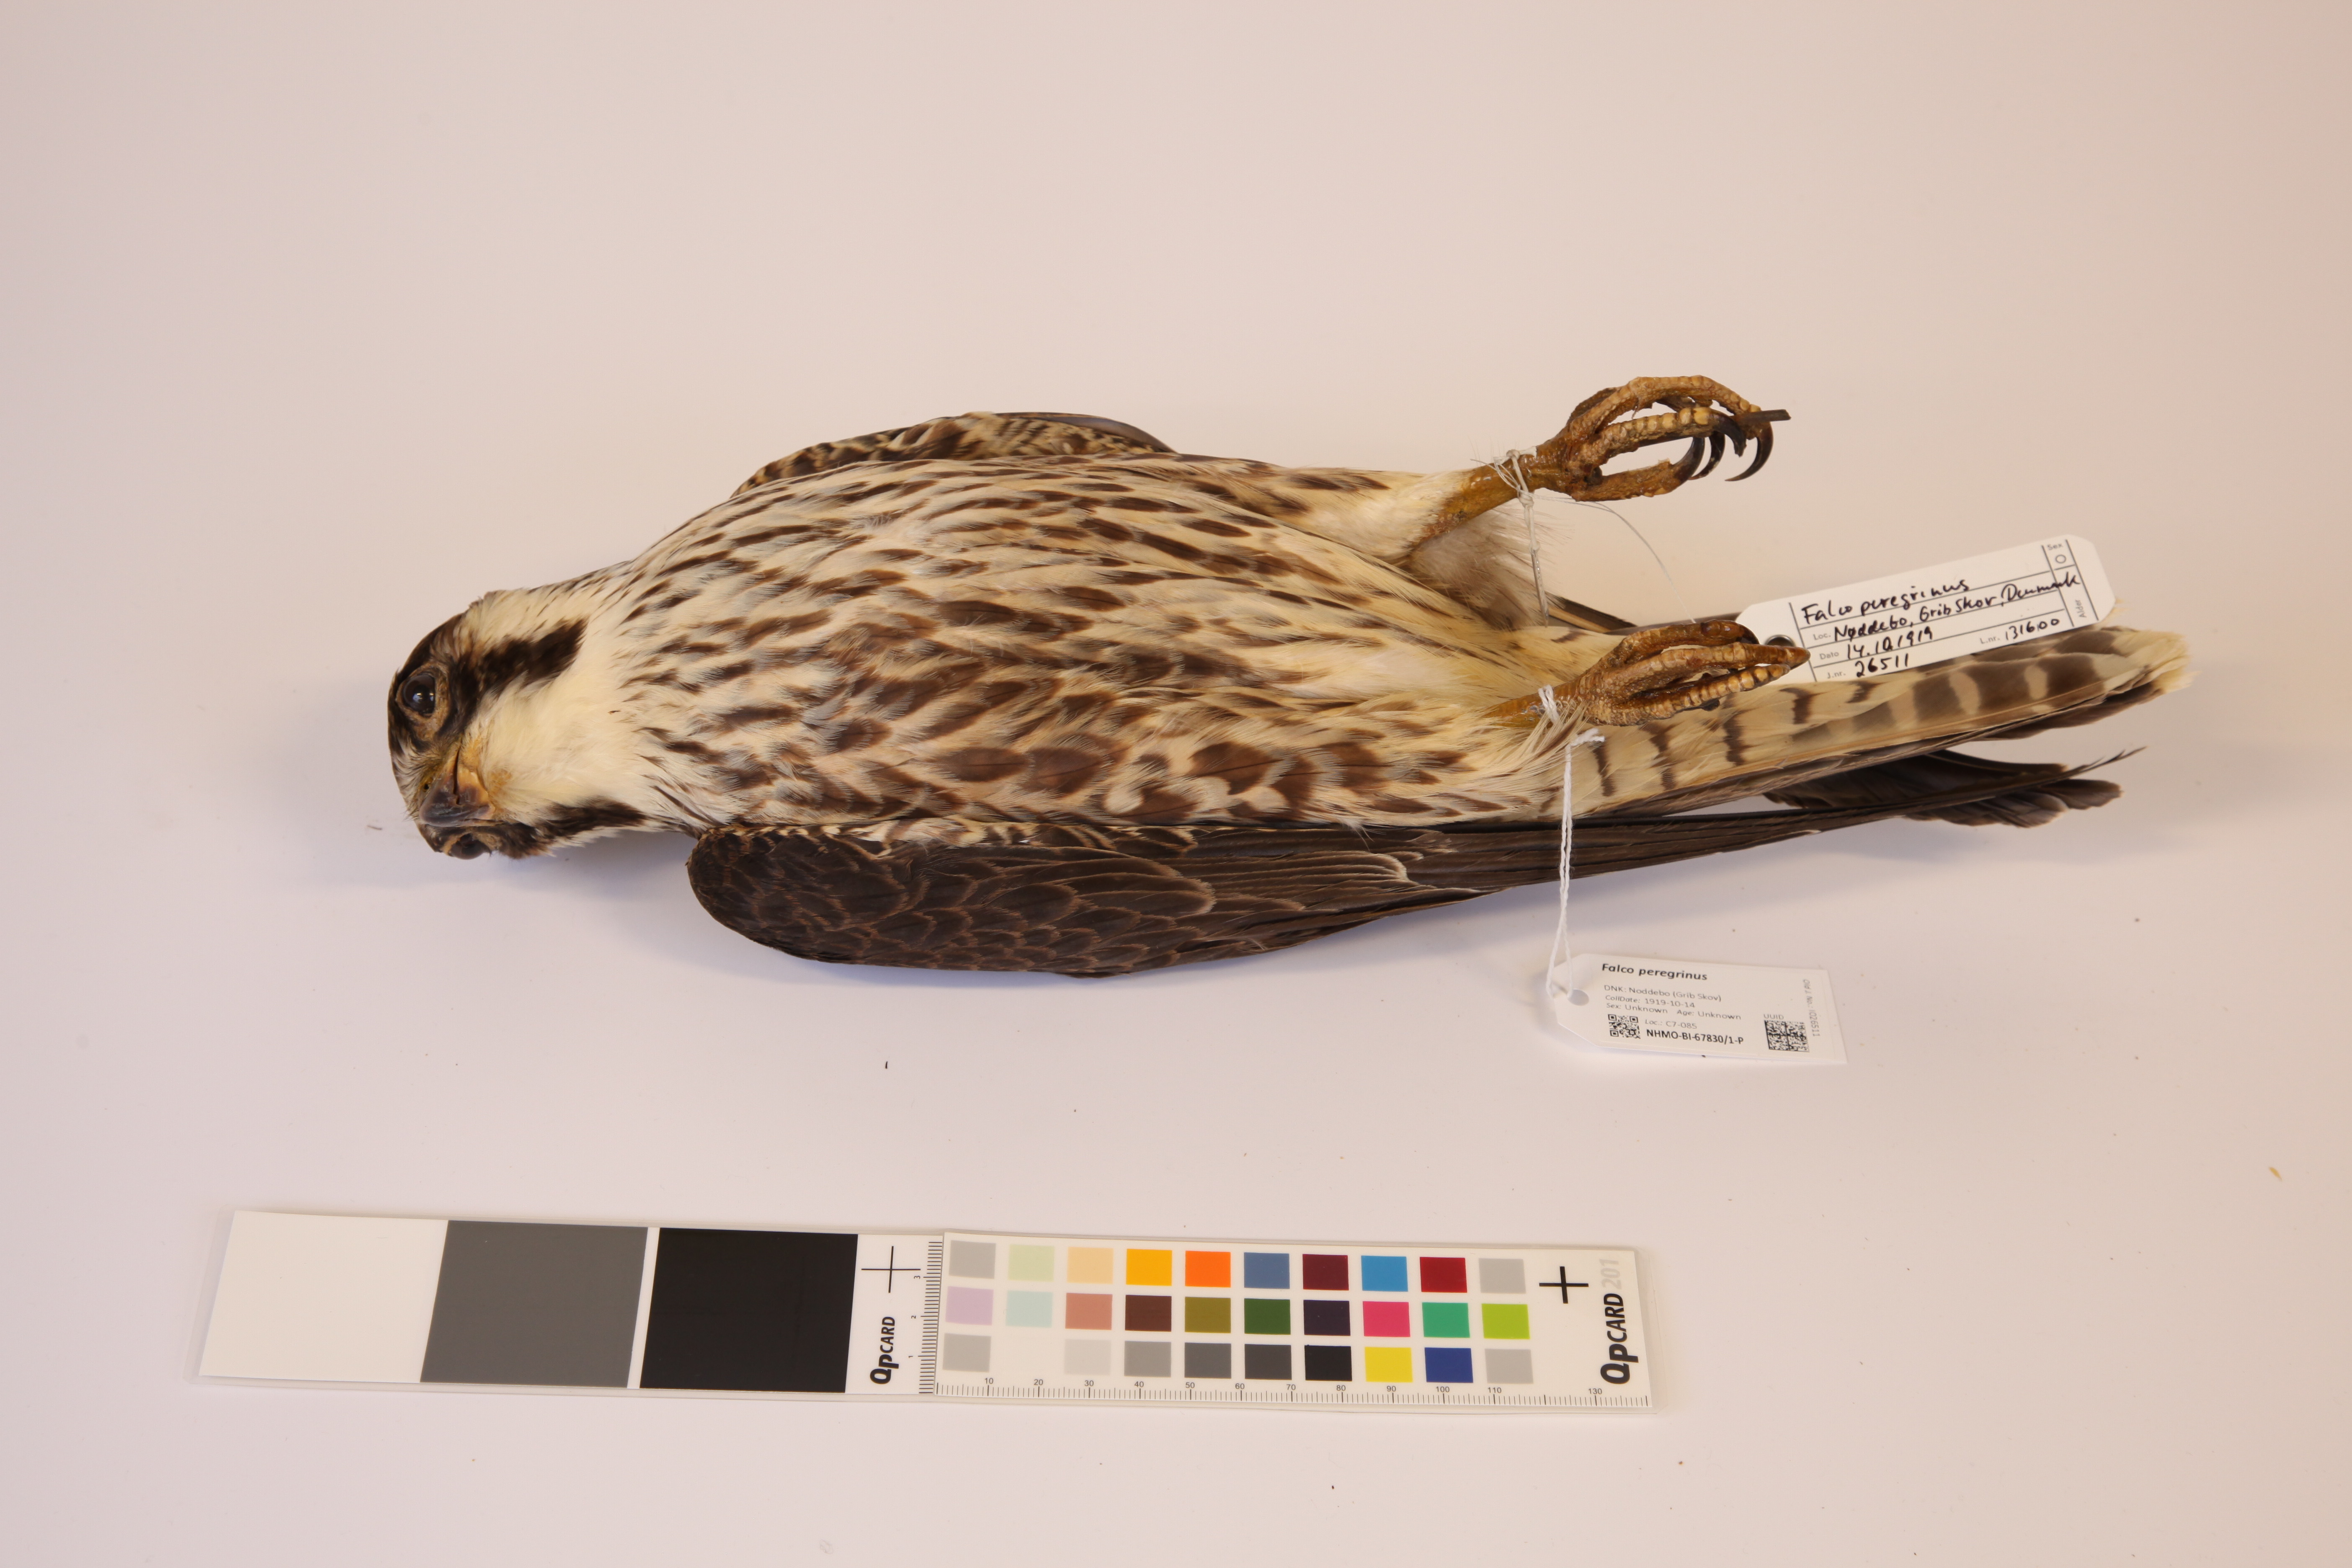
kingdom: Animalia
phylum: Chordata
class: Aves
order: Falconiformes
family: Falconidae
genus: Falco
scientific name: Falco peregrinus
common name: Peregrine falcon
